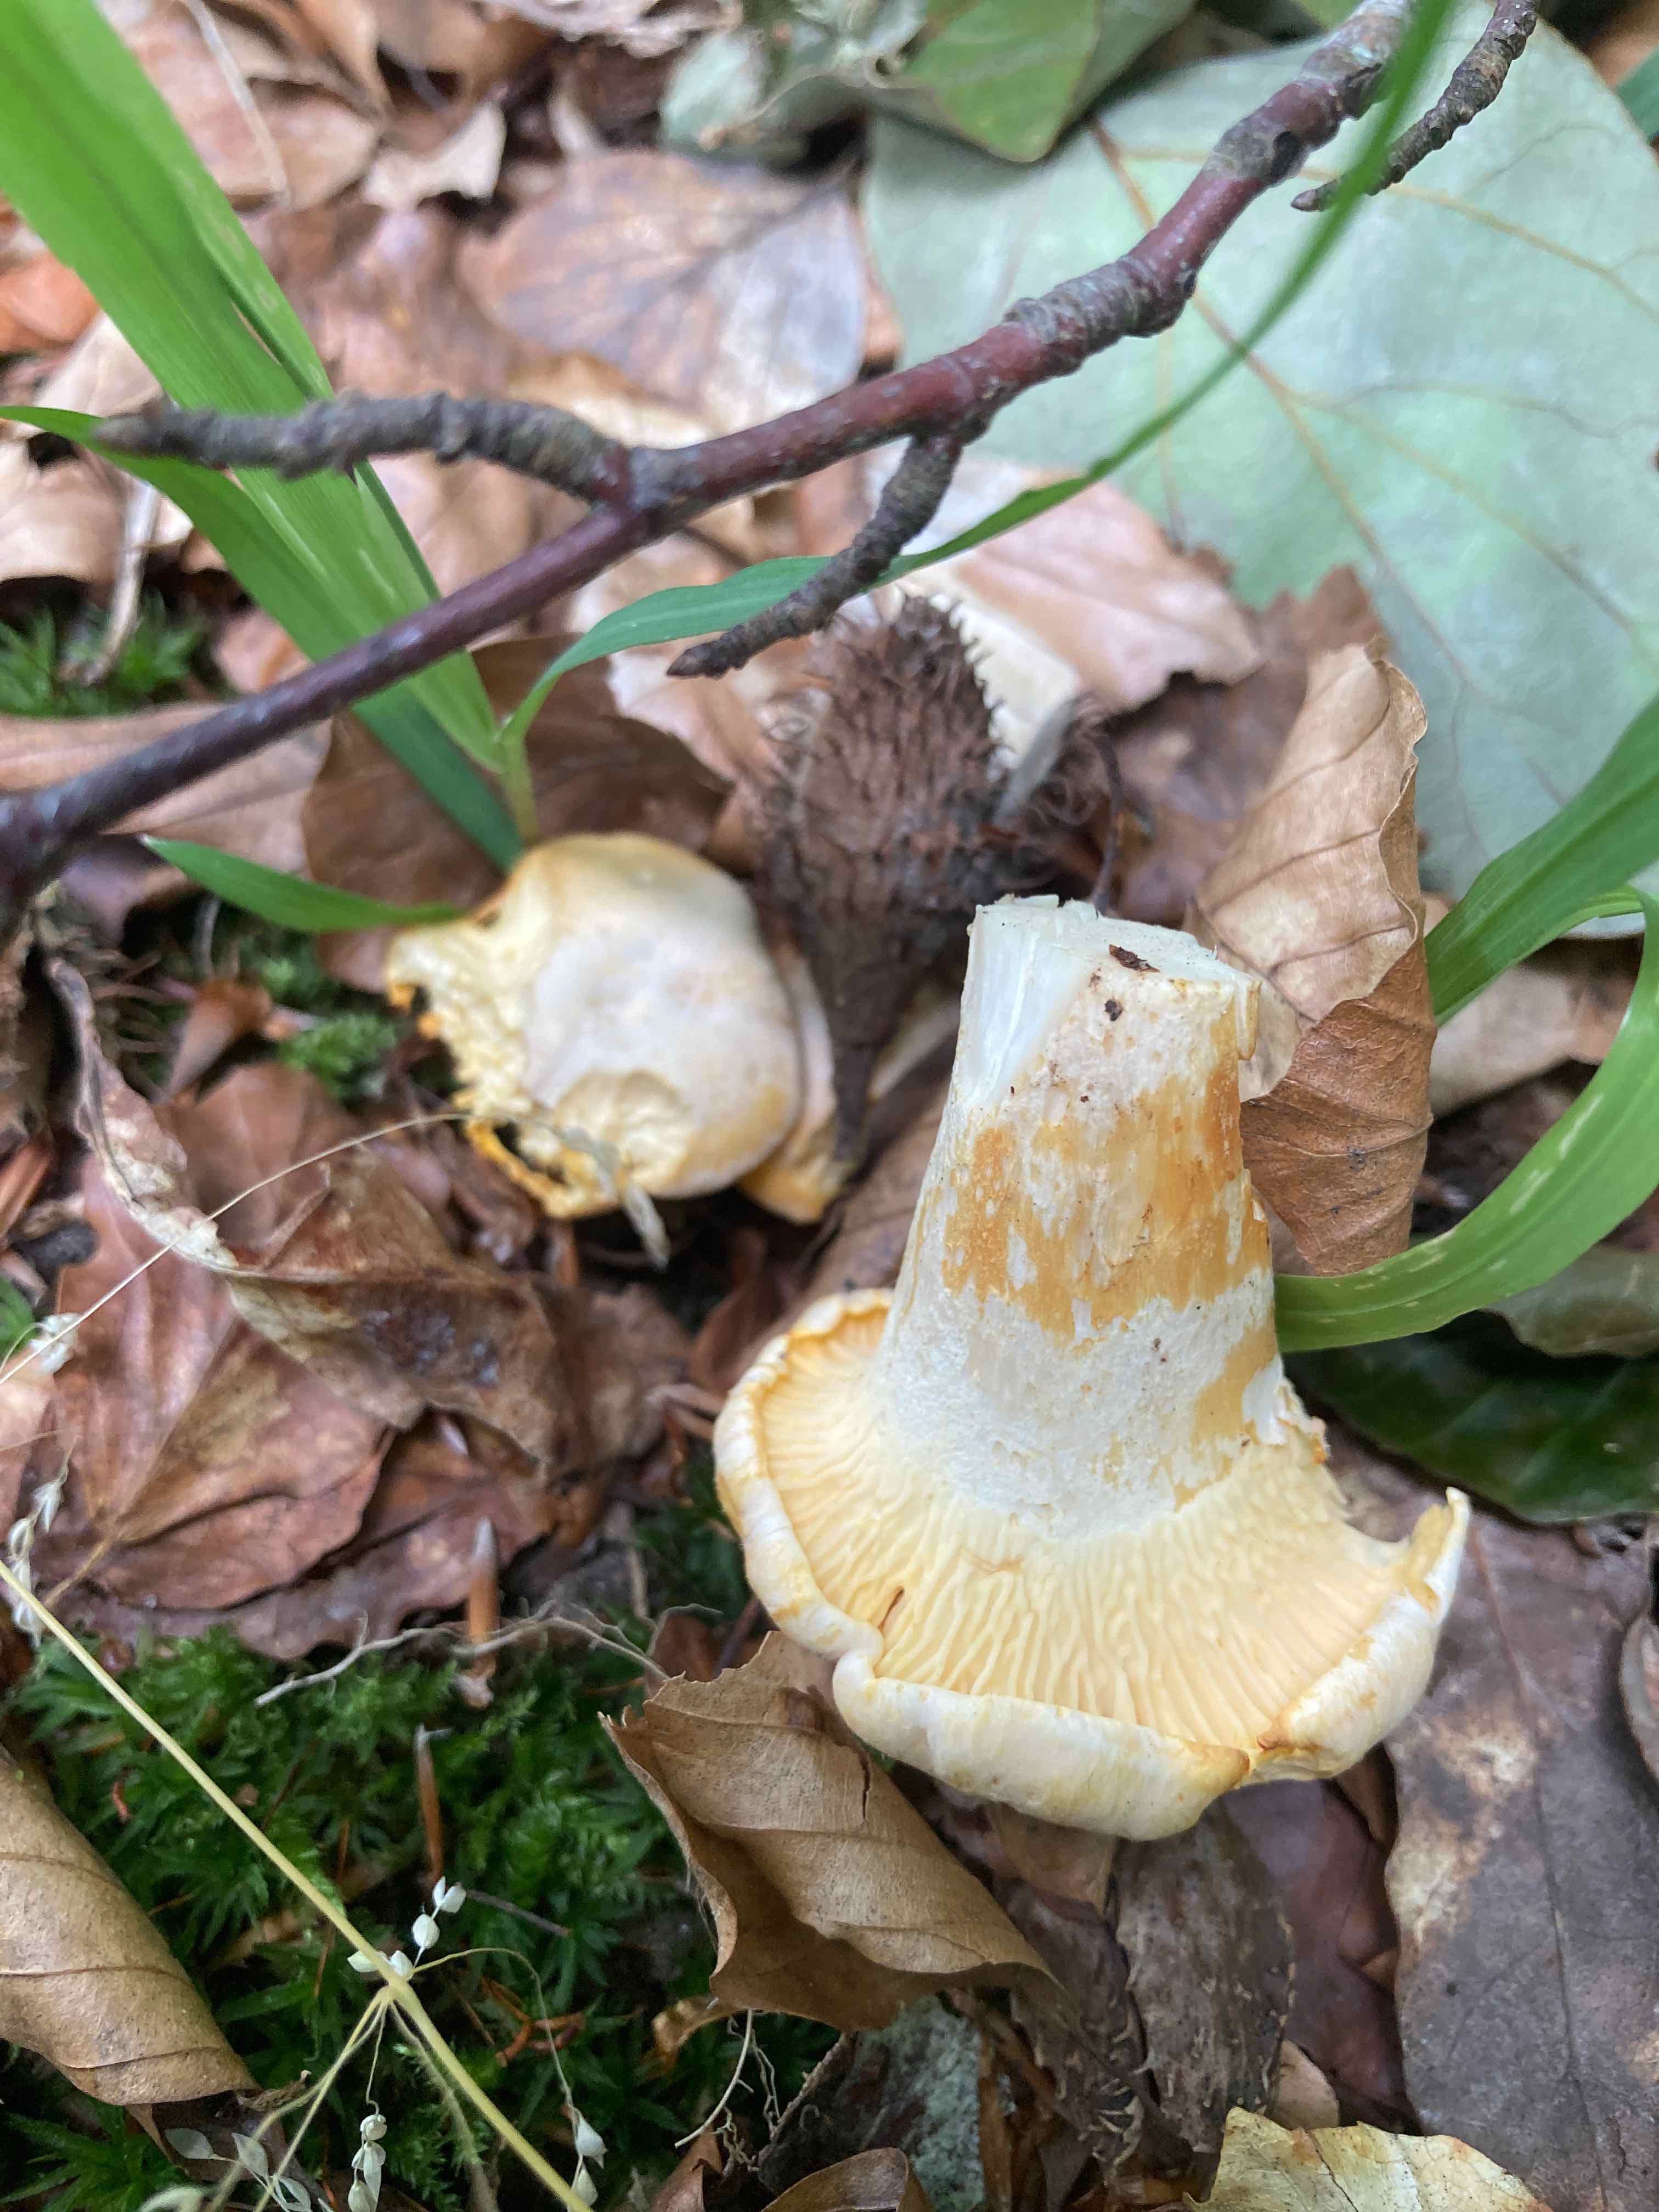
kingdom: Fungi
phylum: Basidiomycota
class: Agaricomycetes
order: Cantharellales
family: Hydnaceae
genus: Cantharellus
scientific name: Cantharellus pallens
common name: bleg kantarel
